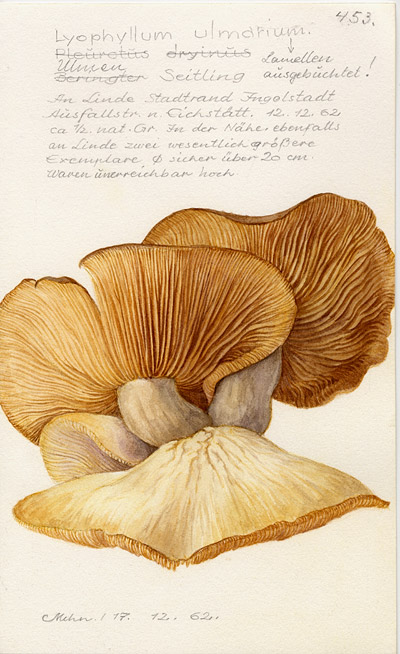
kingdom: Fungi
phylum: Basidiomycota
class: Agaricomycetes
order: Agaricales
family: Lyophyllaceae
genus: Hypsizygus
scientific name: Hypsizygus ulmarius
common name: Elm leech
